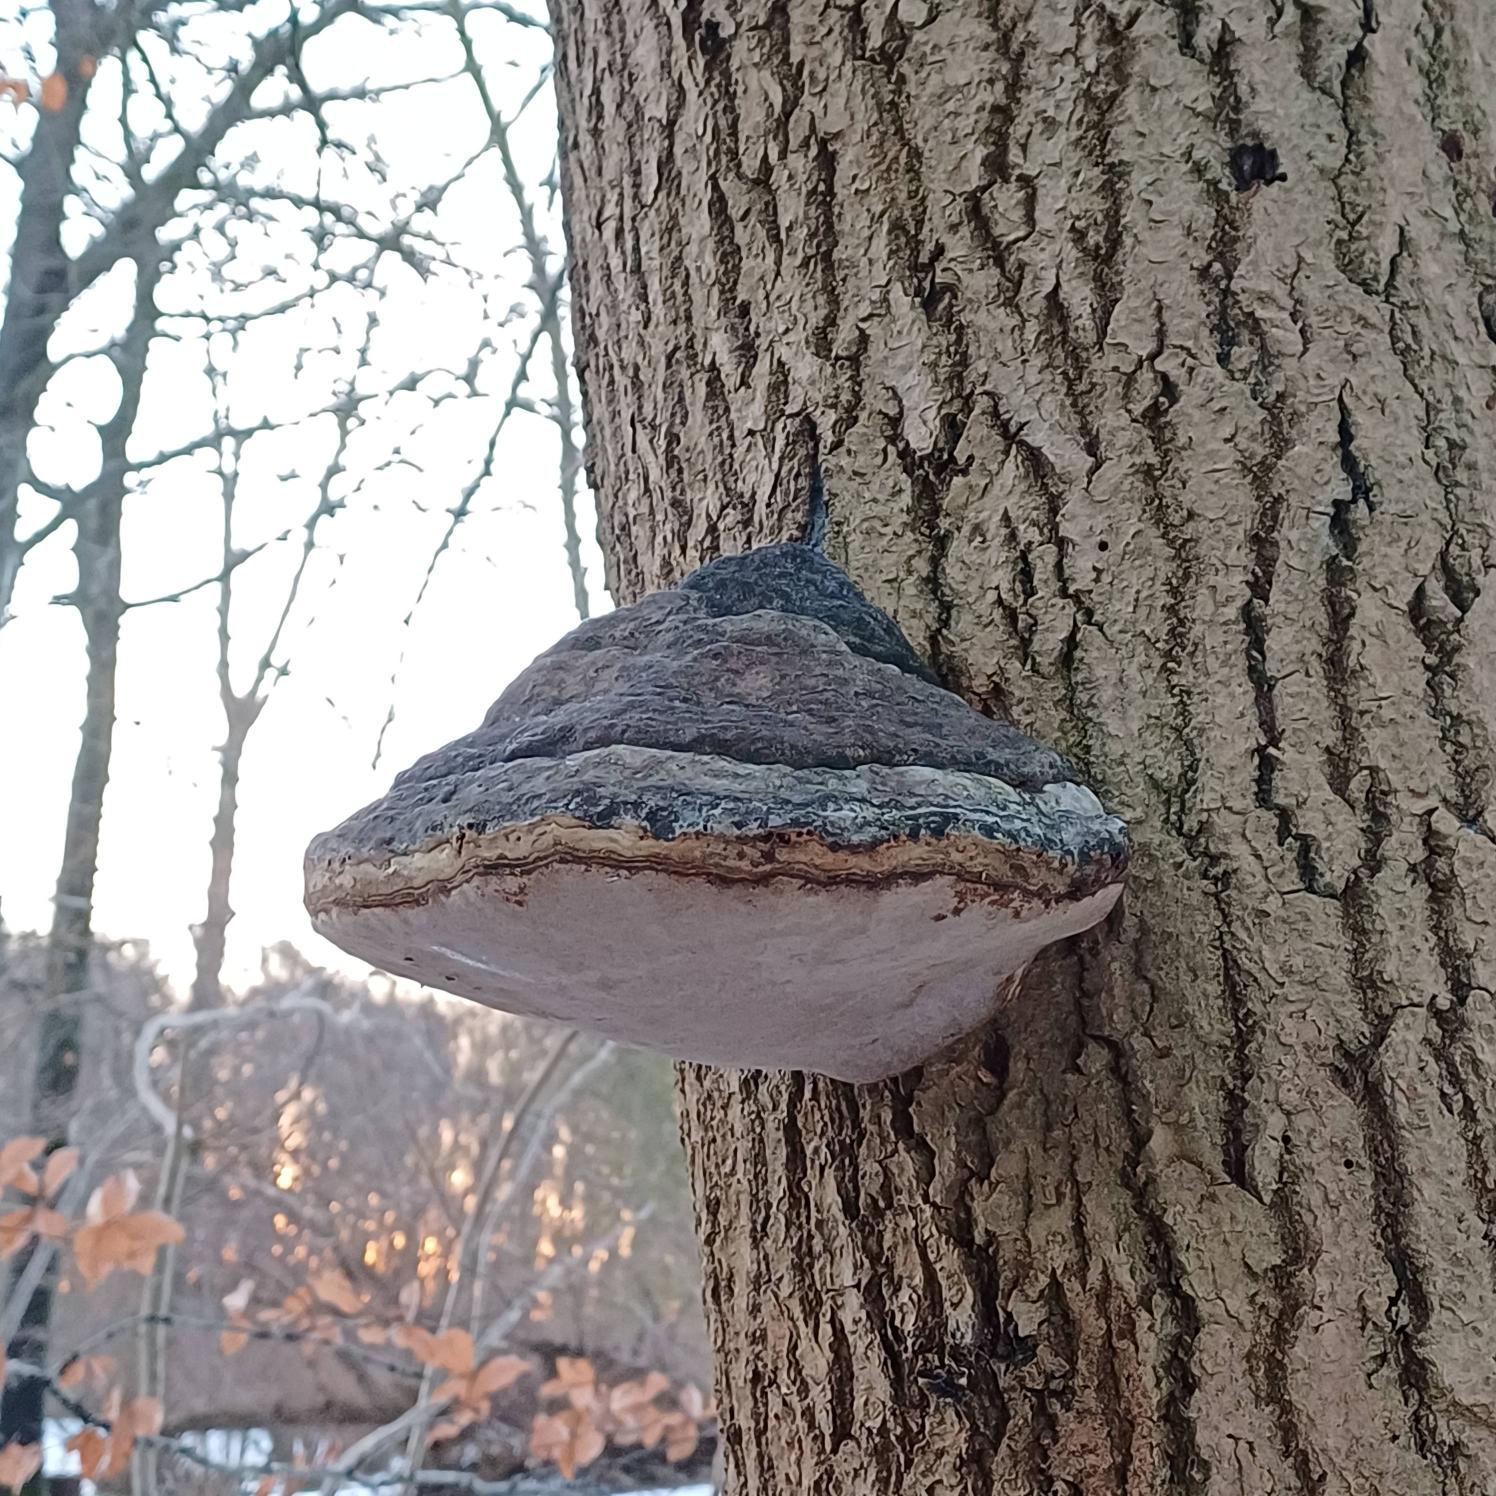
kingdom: Fungi
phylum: Basidiomycota
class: Agaricomycetes
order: Polyporales
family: Polyporaceae
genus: Fomes
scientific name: Fomes fomentarius
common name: Tøndersvamp
